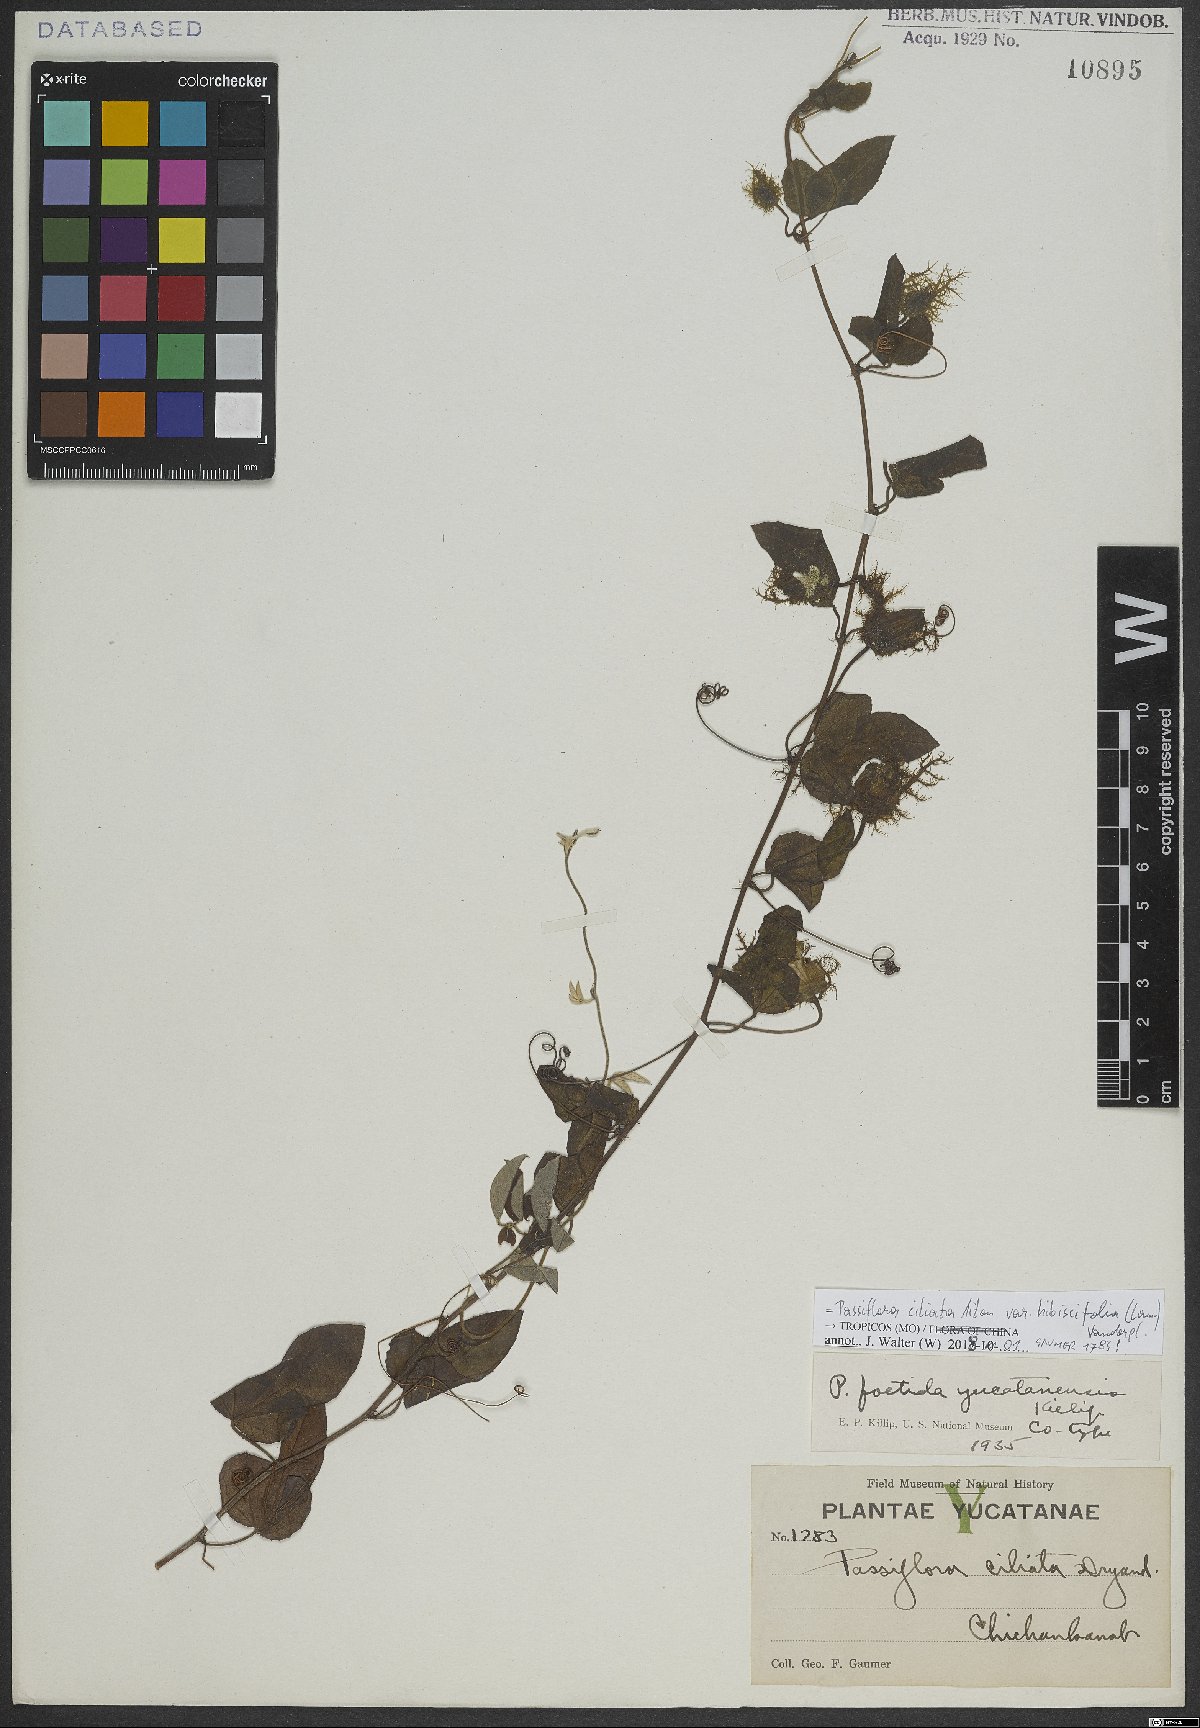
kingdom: Plantae
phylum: Tracheophyta
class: Magnoliopsida
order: Malpighiales
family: Passifloraceae
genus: Passiflora
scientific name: Passiflora ciliata
